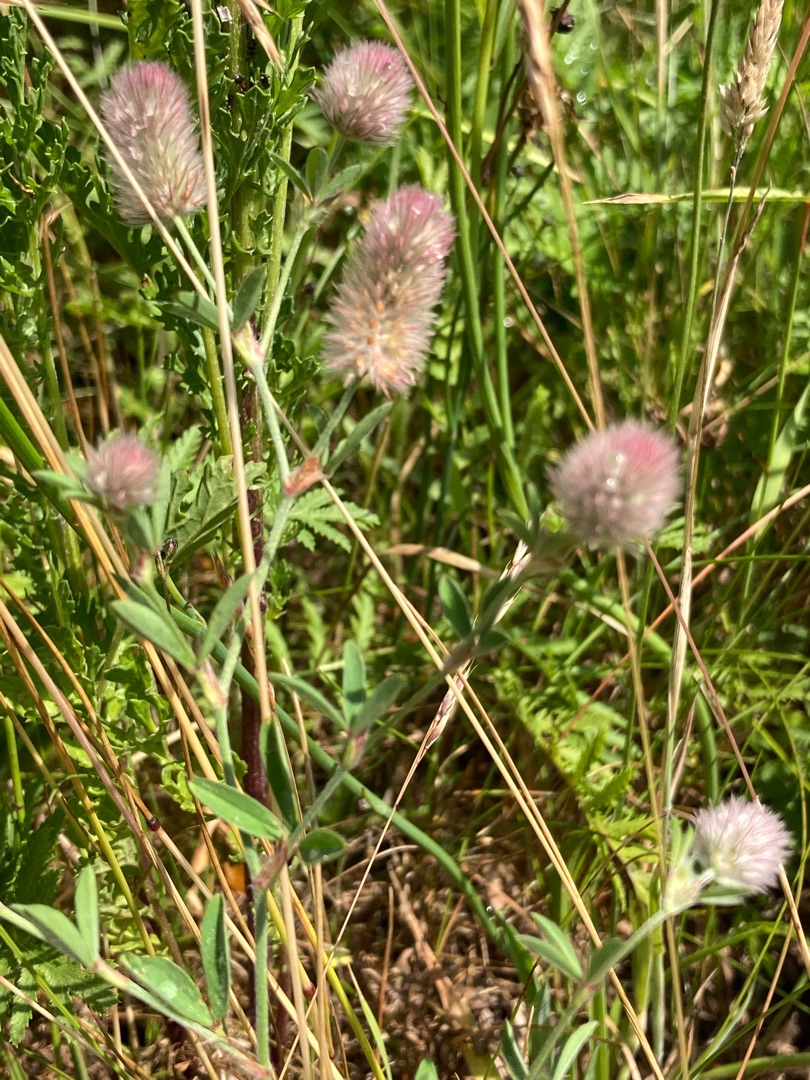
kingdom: Plantae
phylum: Tracheophyta
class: Magnoliopsida
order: Fabales
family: Fabaceae
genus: Trifolium
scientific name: Trifolium arvense
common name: Hare-kløver
